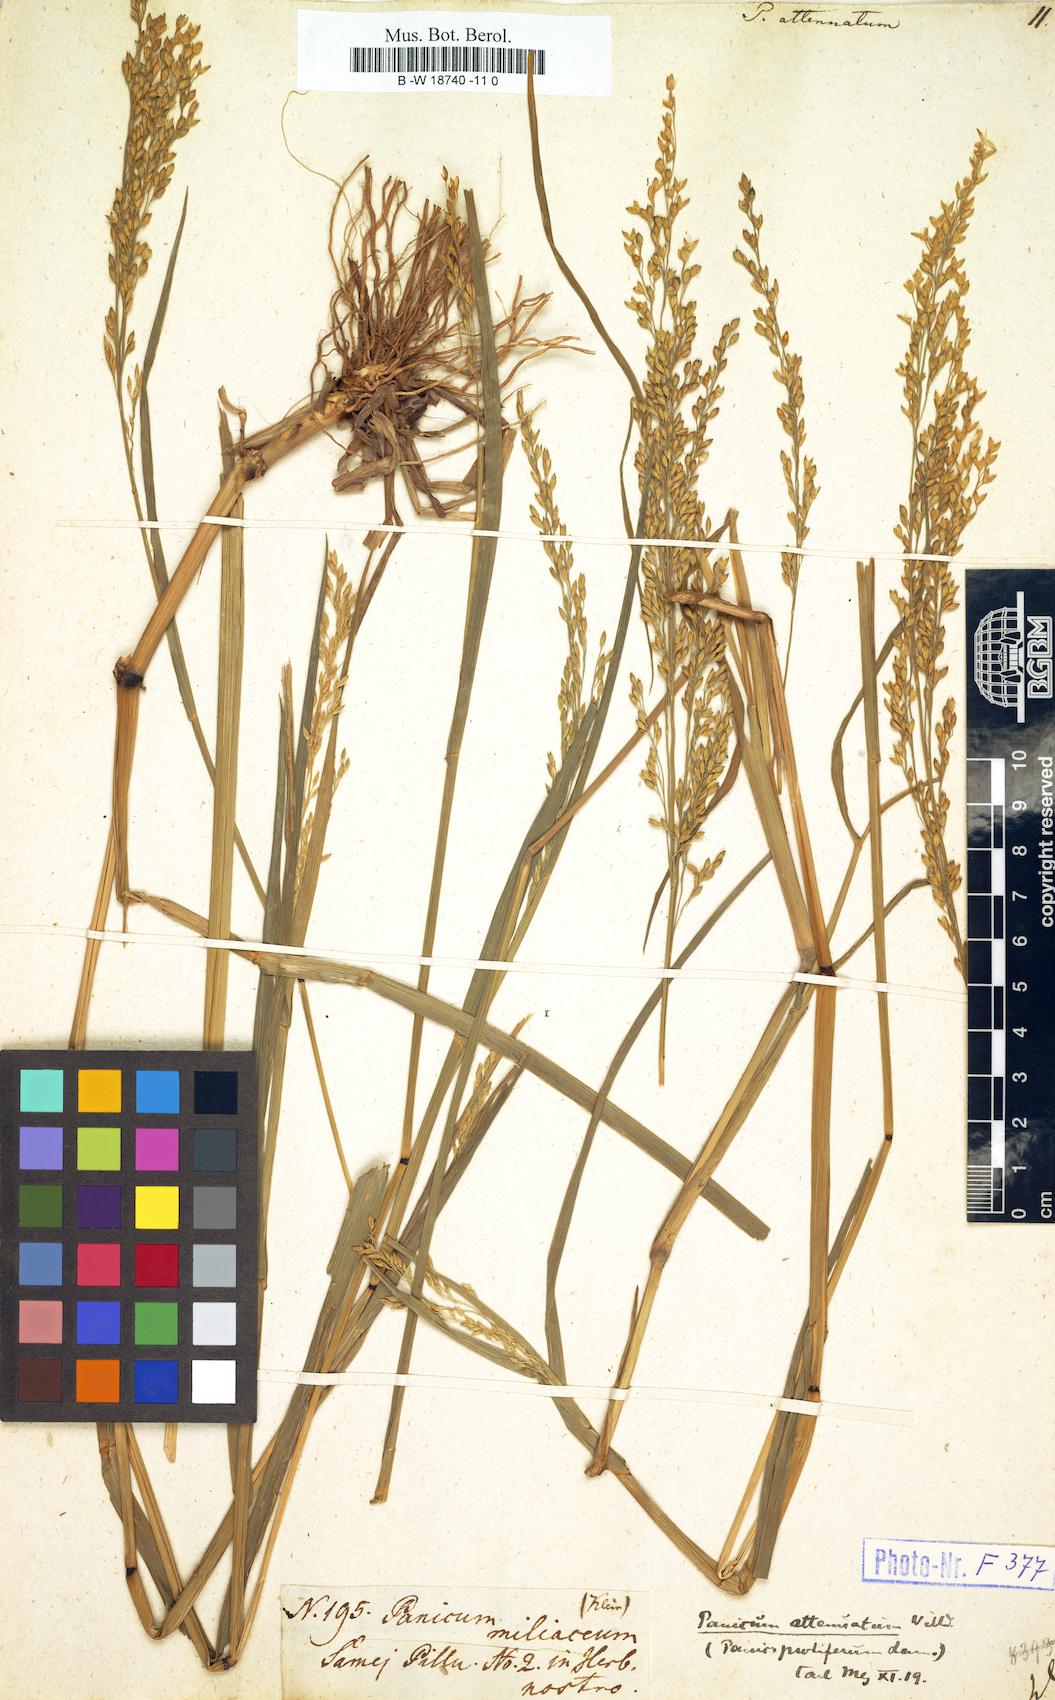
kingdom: Plantae
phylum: Tracheophyta
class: Liliopsida
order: Poales
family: Poaceae
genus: Panicum
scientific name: Panicum sumatrense
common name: Little millet
